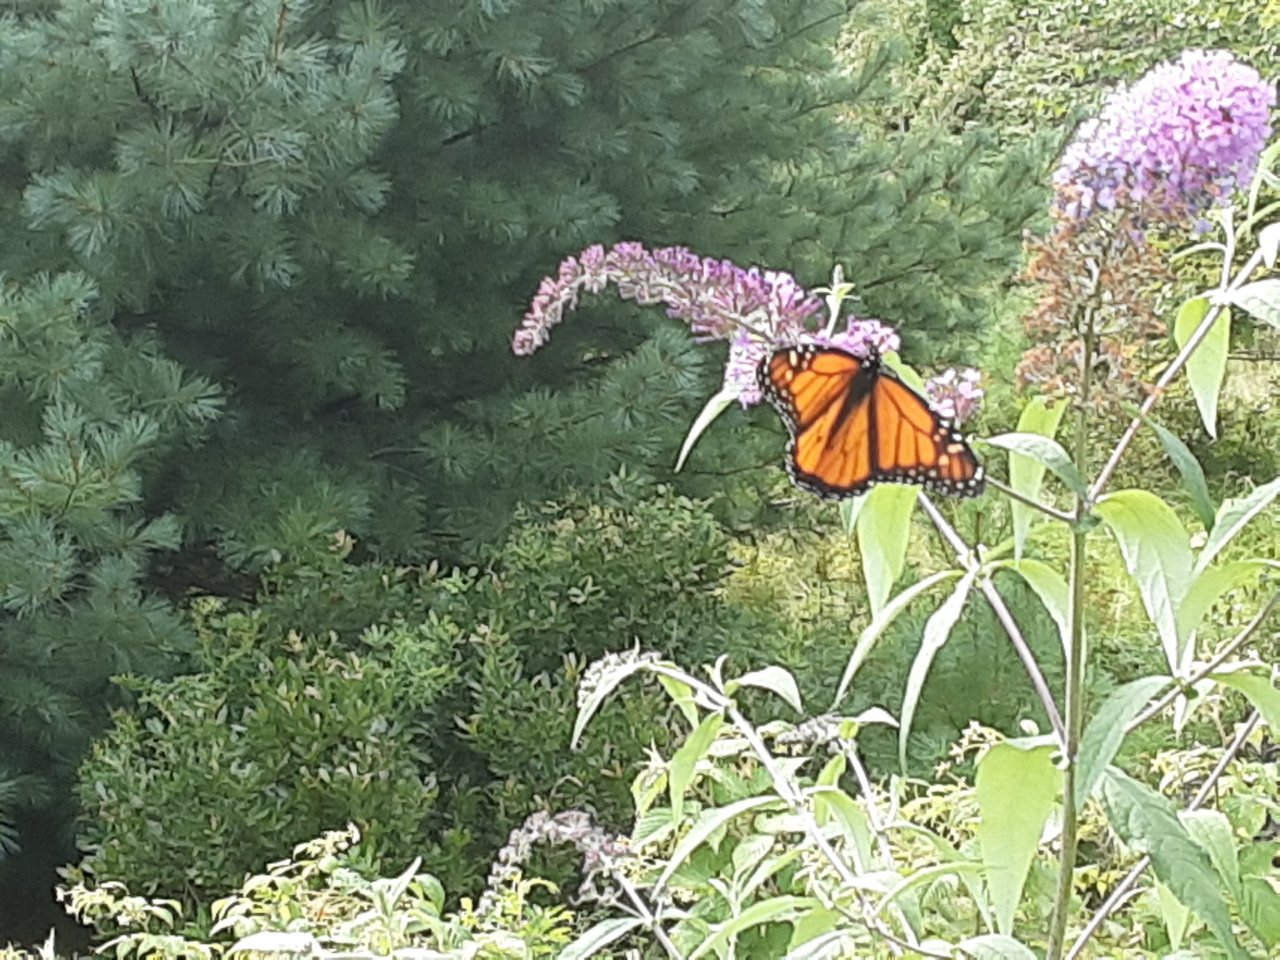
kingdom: Animalia
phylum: Arthropoda
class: Insecta
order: Lepidoptera
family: Nymphalidae
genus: Danaus
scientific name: Danaus plexippus
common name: Monarch
